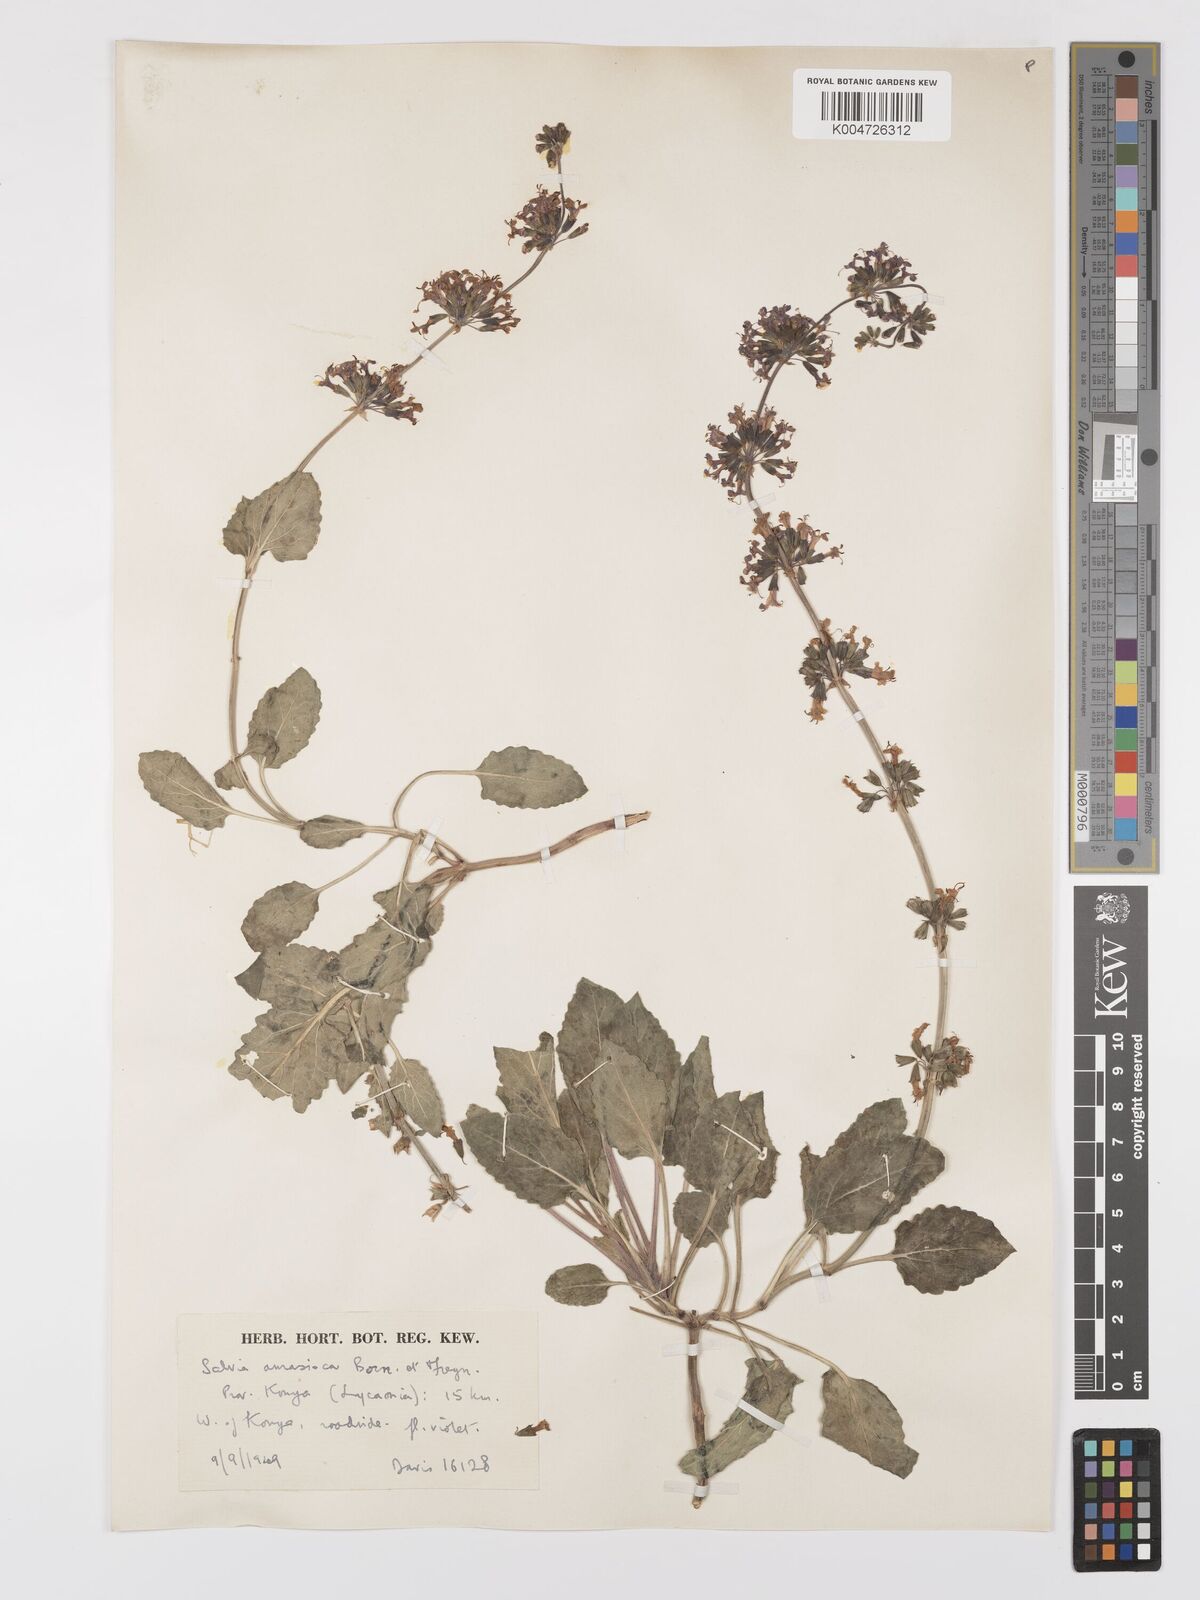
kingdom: Plantae
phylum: Tracheophyta
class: Magnoliopsida
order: Lamiales
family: Lamiaceae
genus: Salvia
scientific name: Salvia verticillata
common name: Whorled clary
